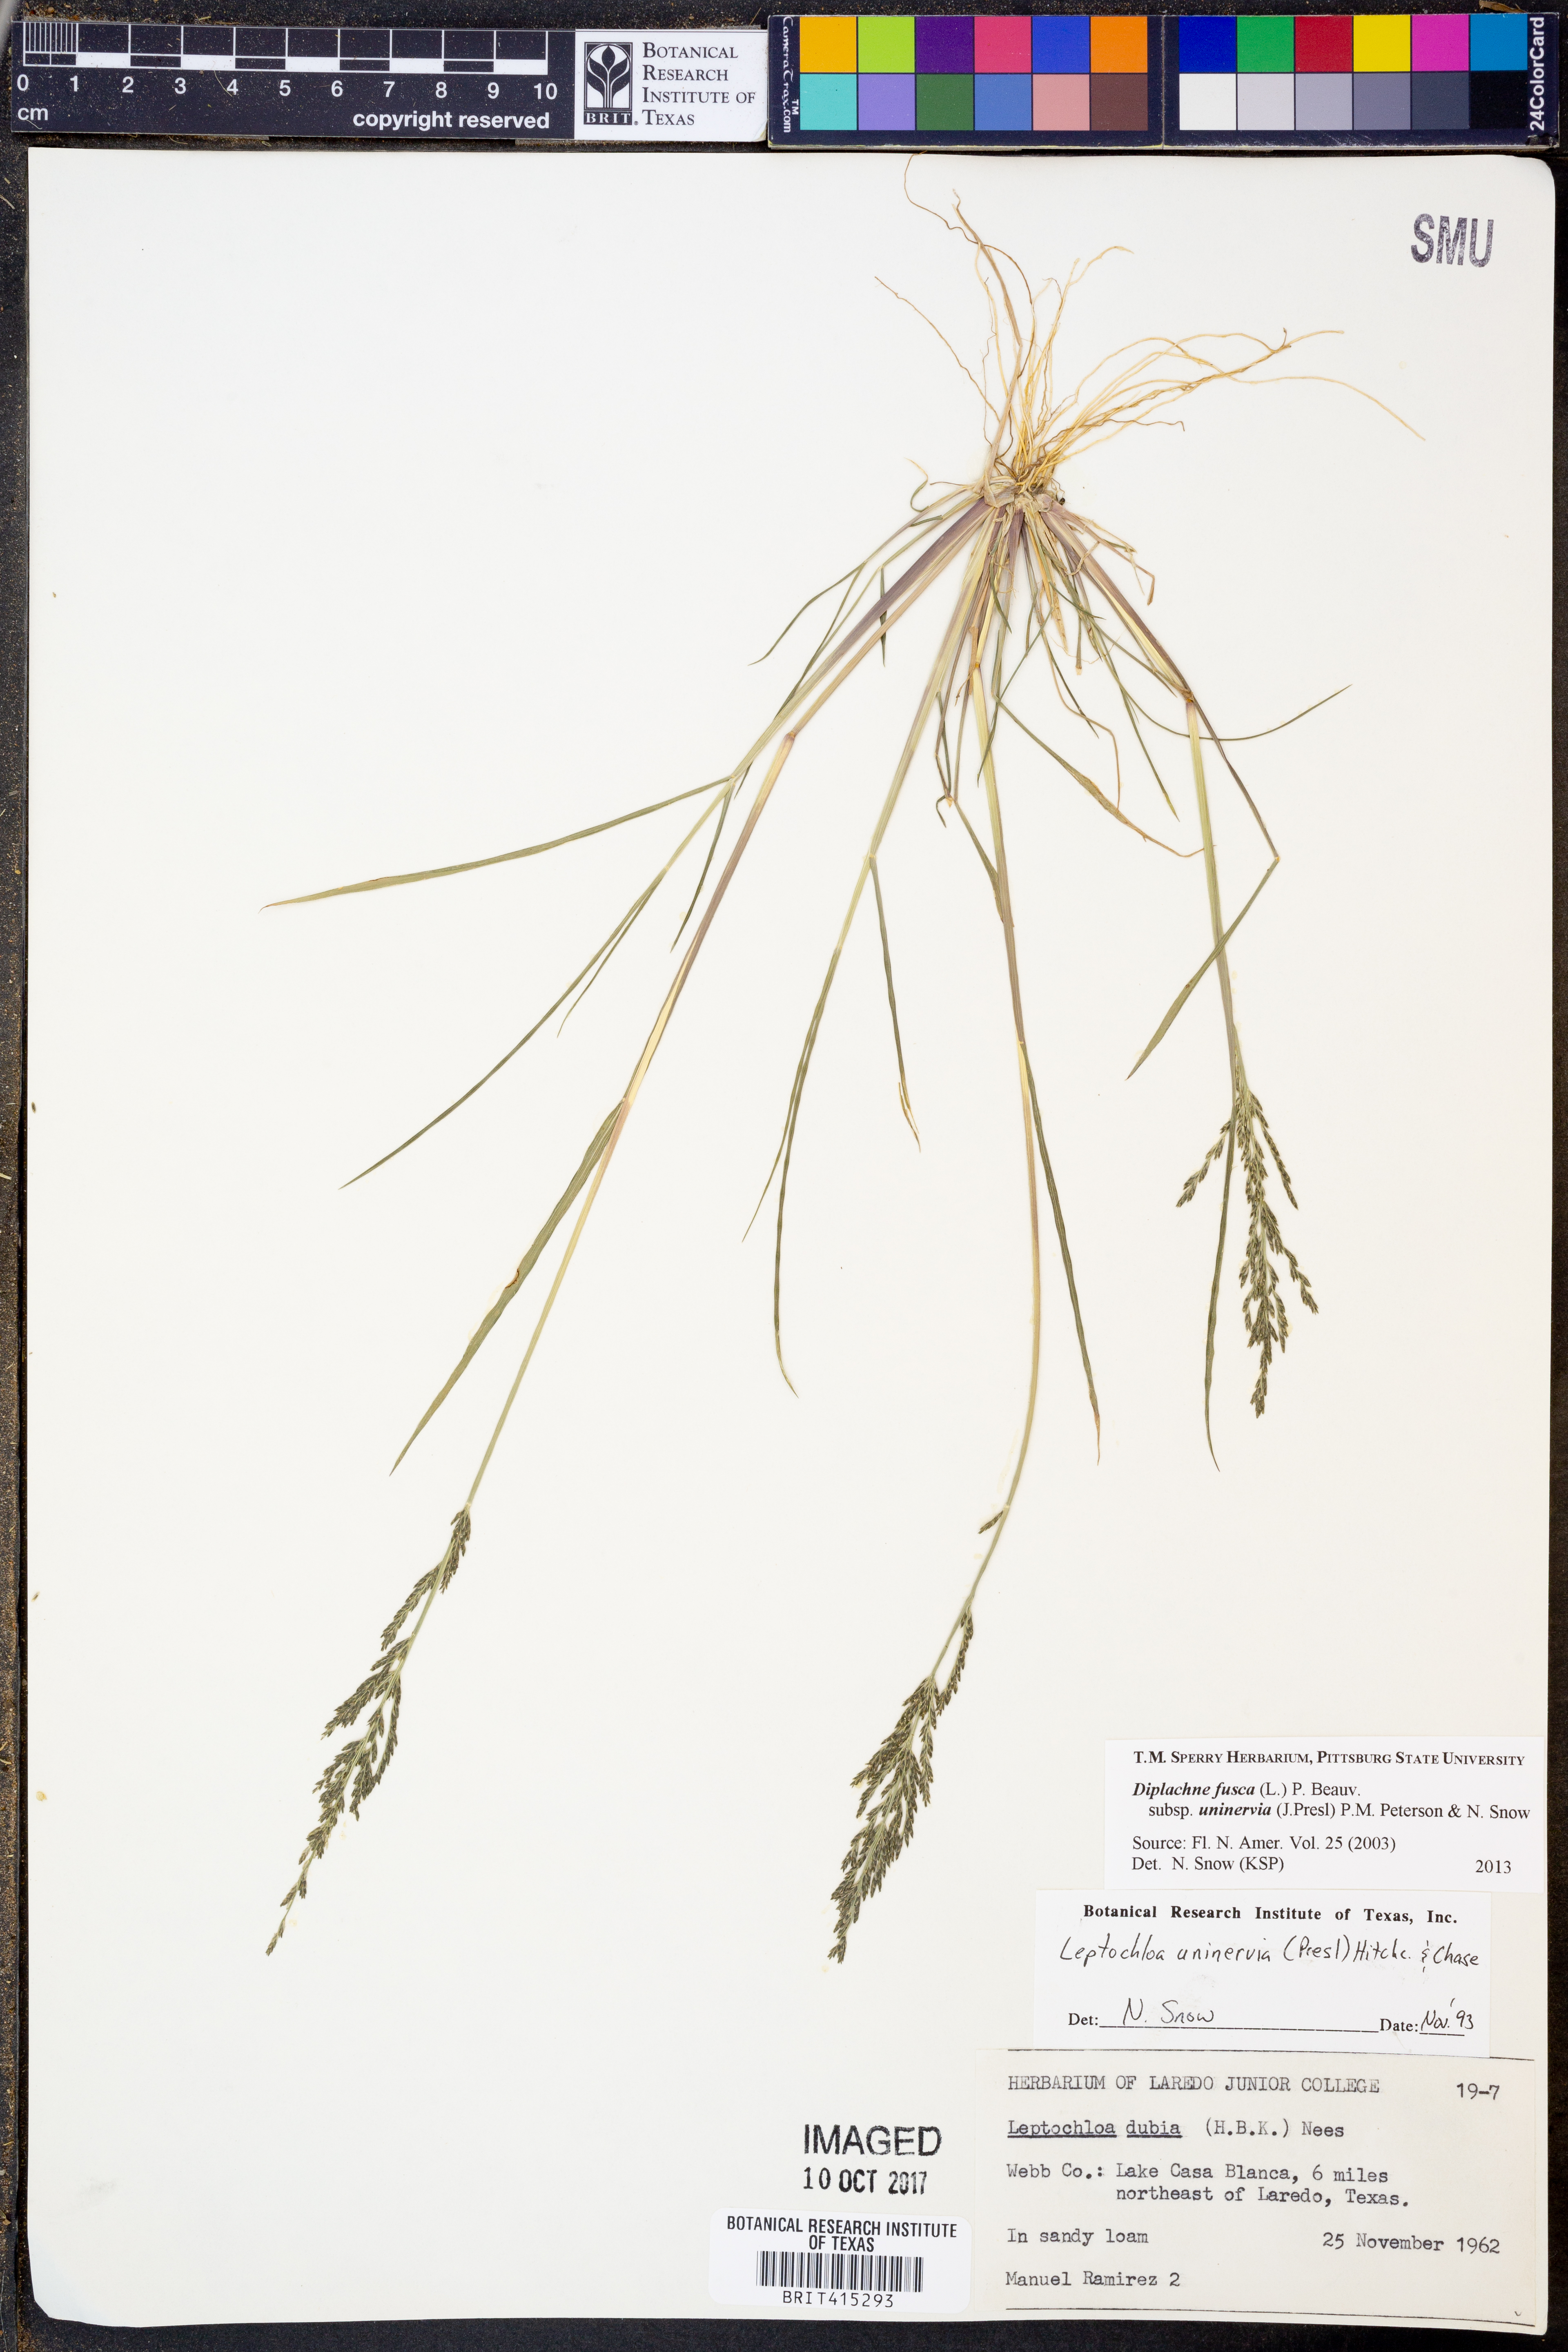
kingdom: Plantae
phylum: Tracheophyta
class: Liliopsida
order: Poales
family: Poaceae
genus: Diplachne
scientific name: Diplachne fusca
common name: Brown beetle grass
